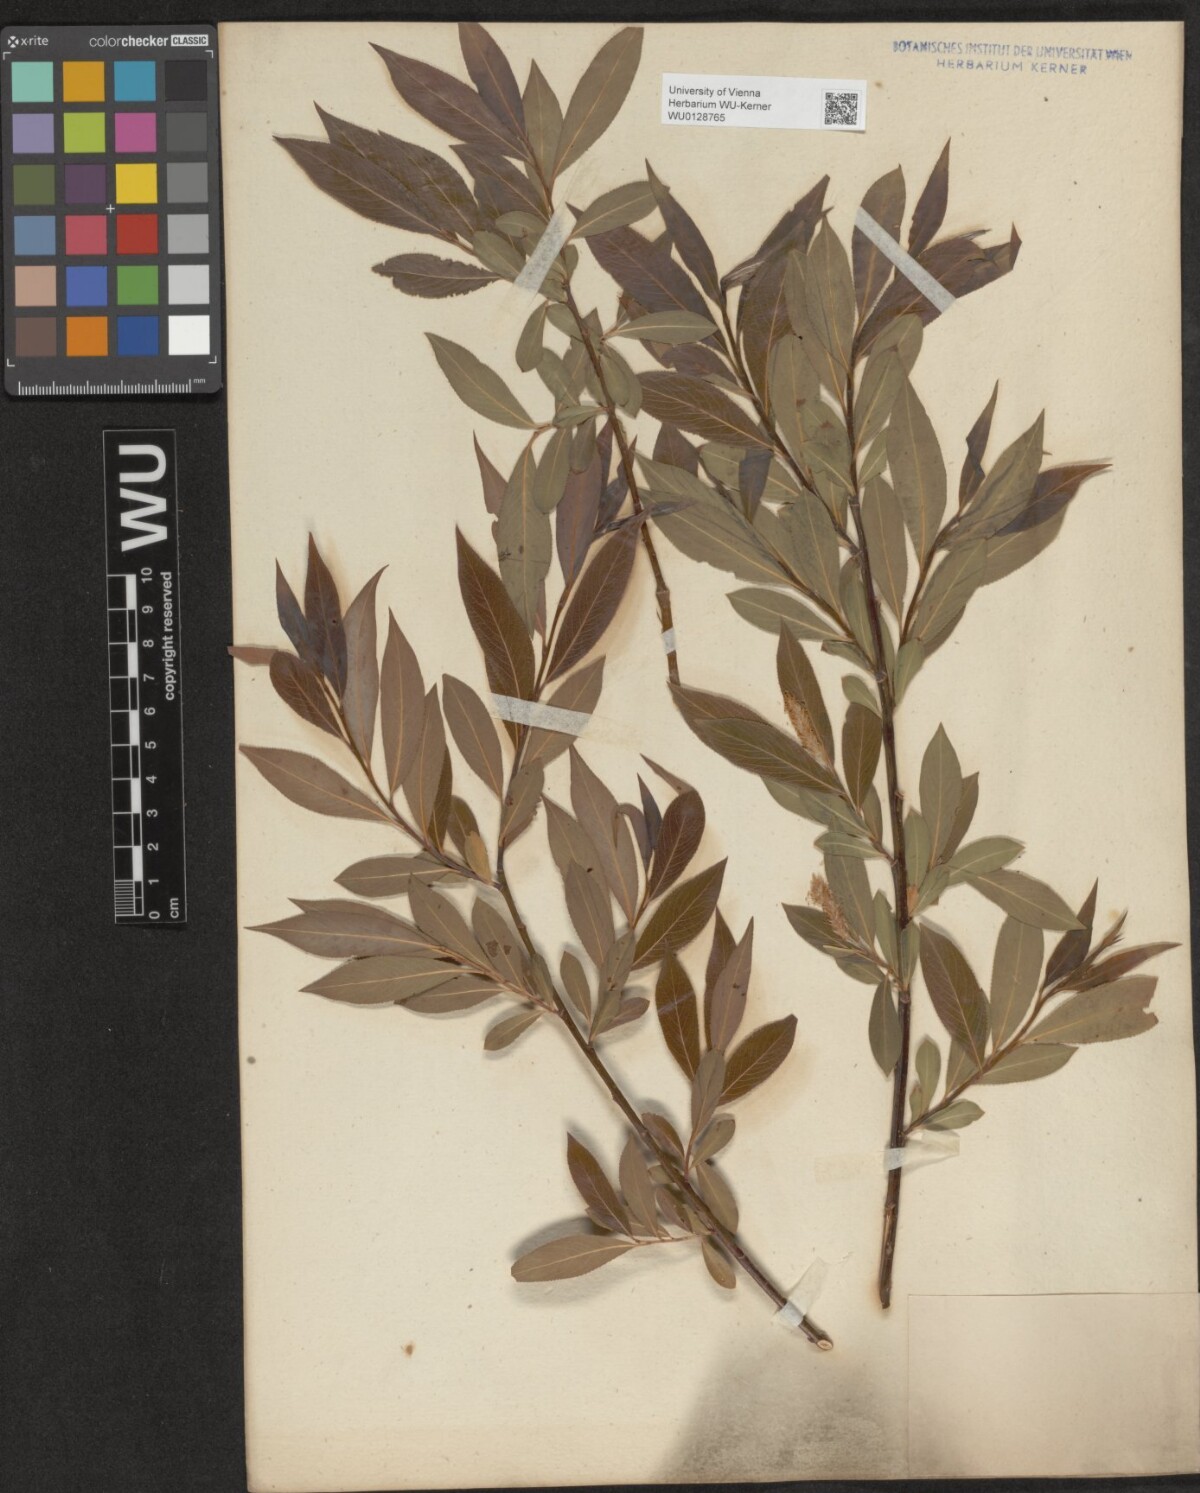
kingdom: Plantae
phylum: Tracheophyta
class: Magnoliopsida
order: Malpighiales
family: Salicaceae
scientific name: Salicaceae
